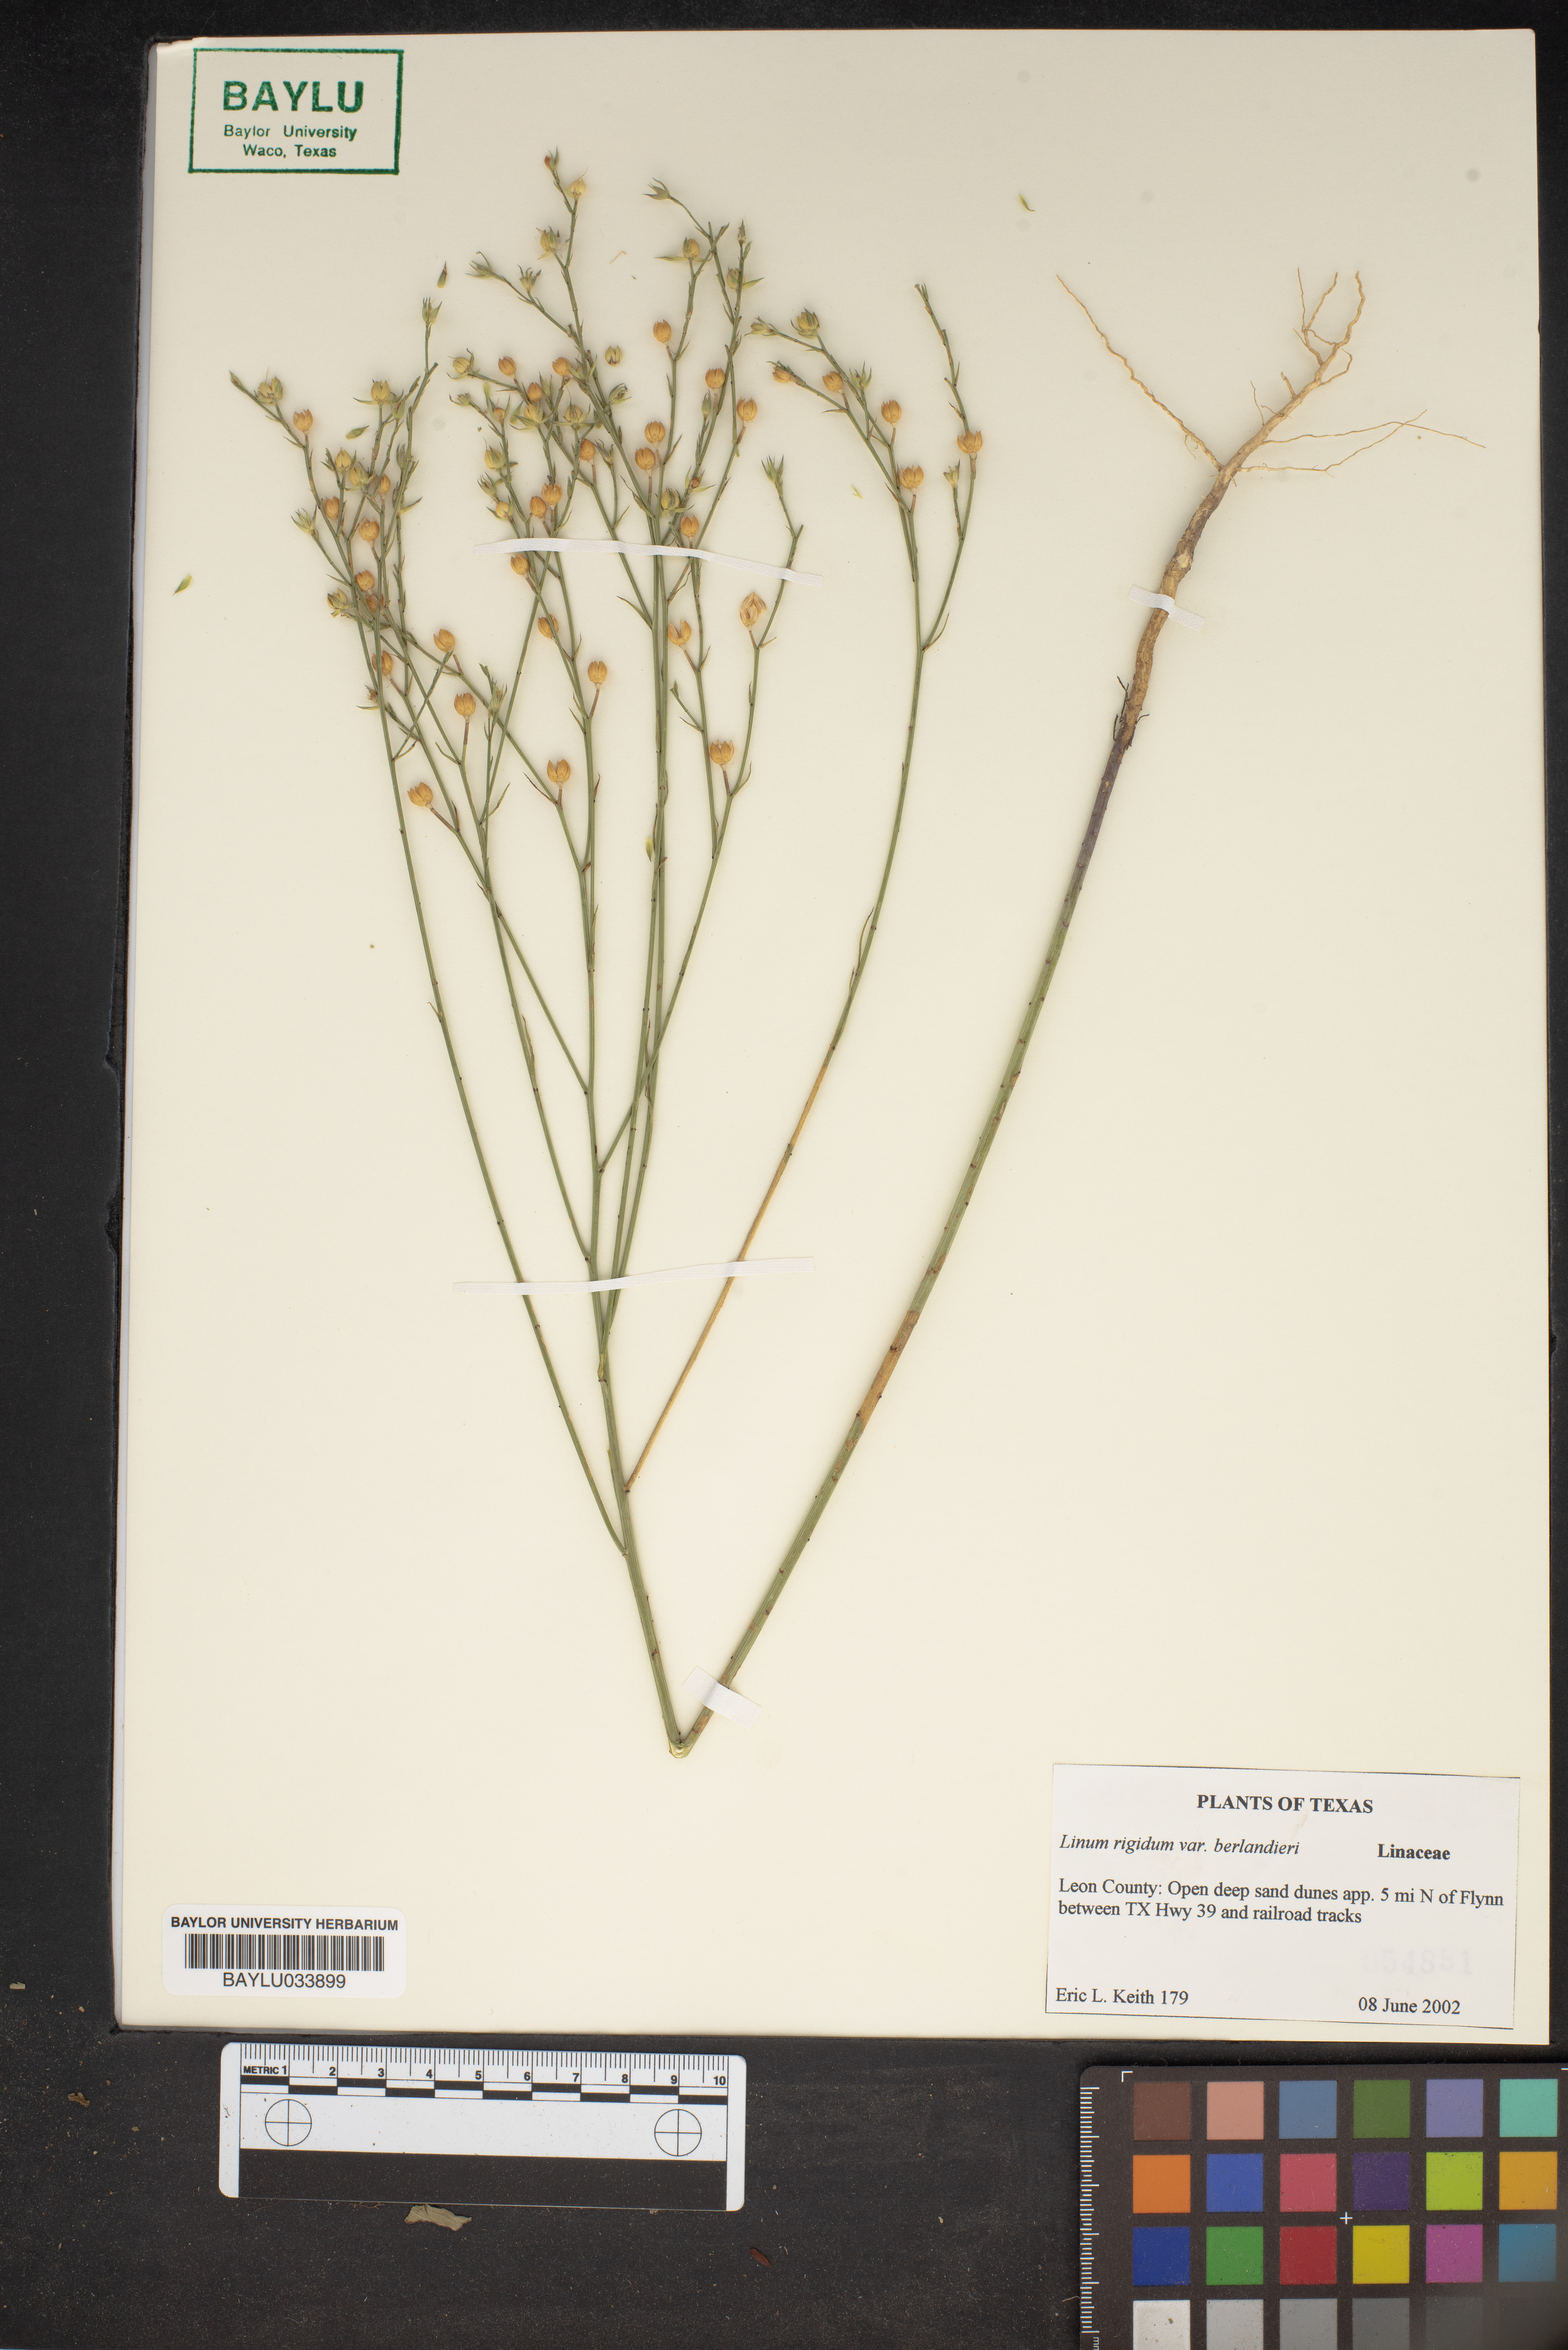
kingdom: Plantae
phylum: Tracheophyta
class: Magnoliopsida
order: Malpighiales
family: Linaceae
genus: Linum
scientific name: Linum rigidum
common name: Stiff-stem flax
